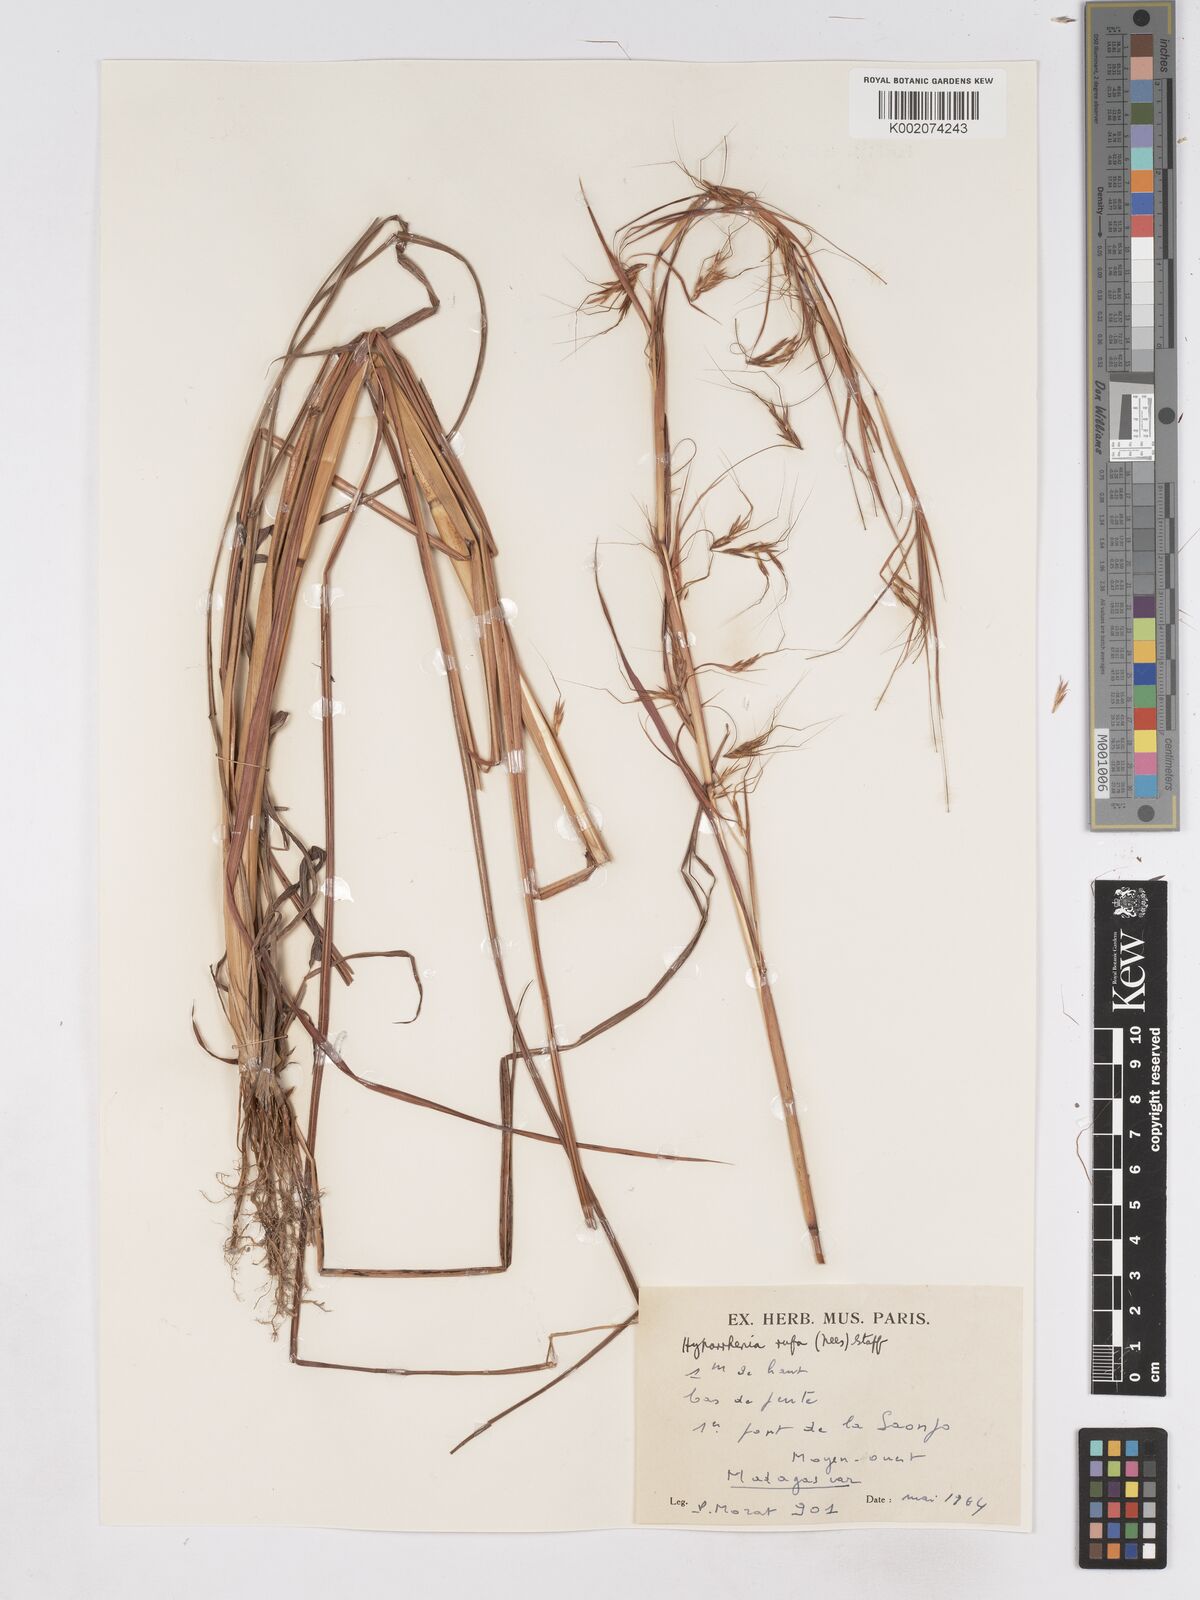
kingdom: Plantae
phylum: Tracheophyta
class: Liliopsida
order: Poales
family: Poaceae
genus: Hyparrhenia
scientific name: Hyparrhenia rufa
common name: Jaraguagrass
